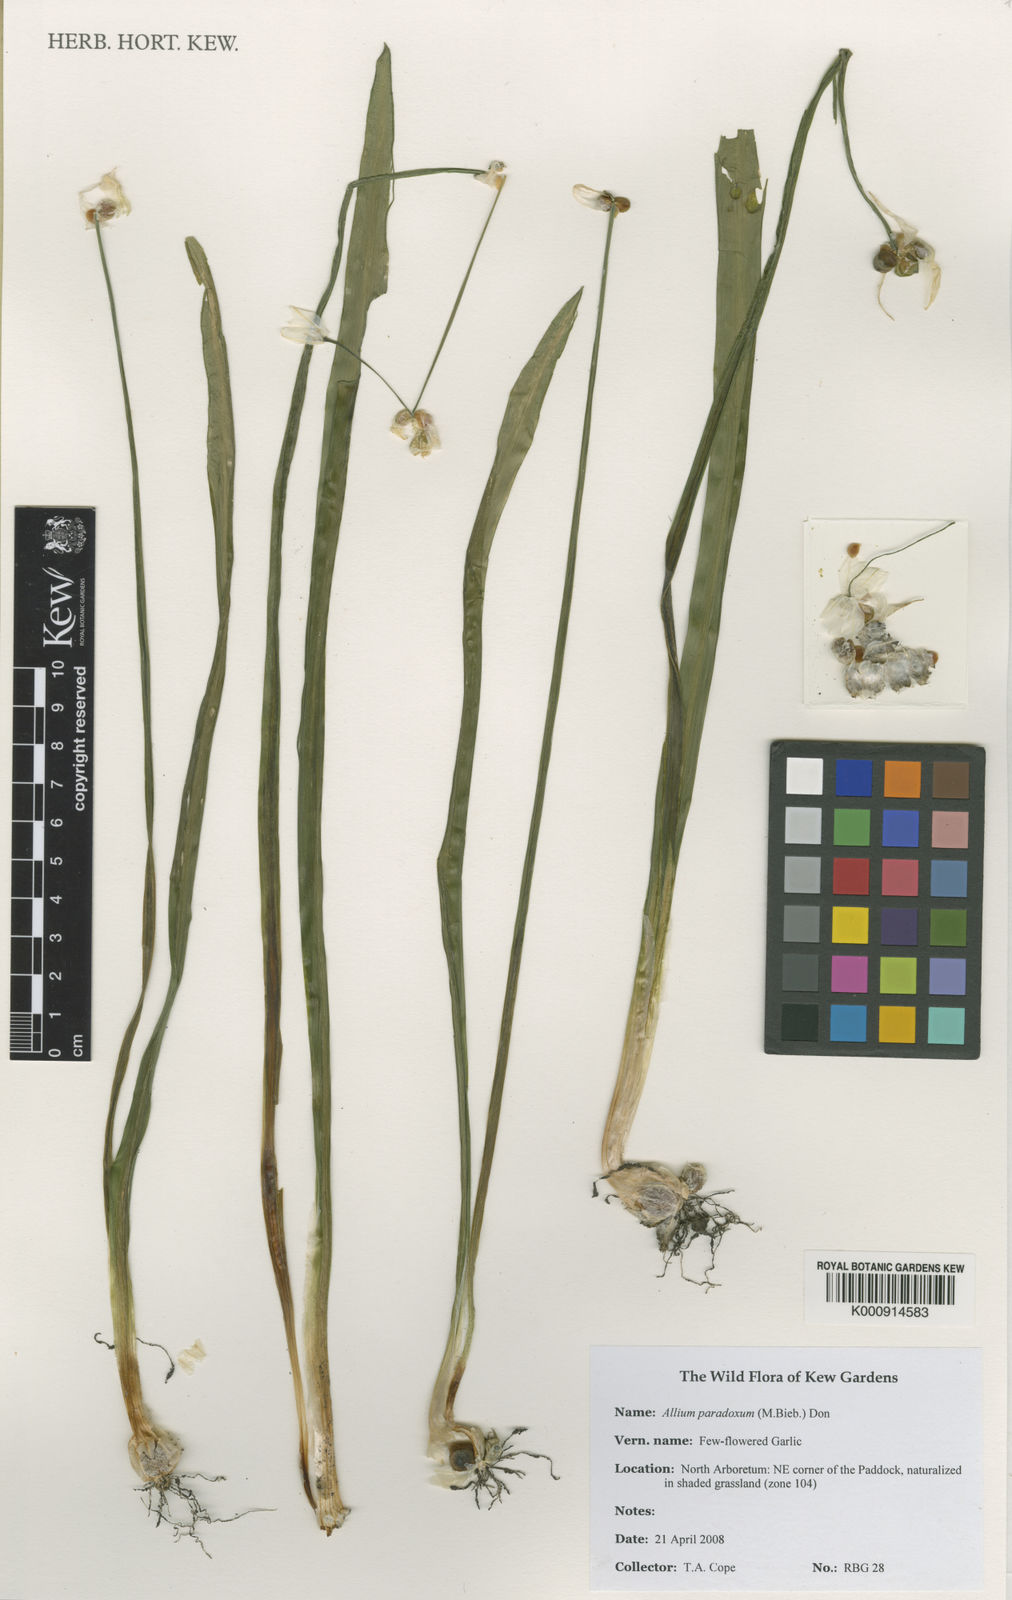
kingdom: Plantae
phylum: Tracheophyta
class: Liliopsida
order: Asparagales
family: Amaryllidaceae
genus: Allium
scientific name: Allium paradoxum
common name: Few-flowered garlic
